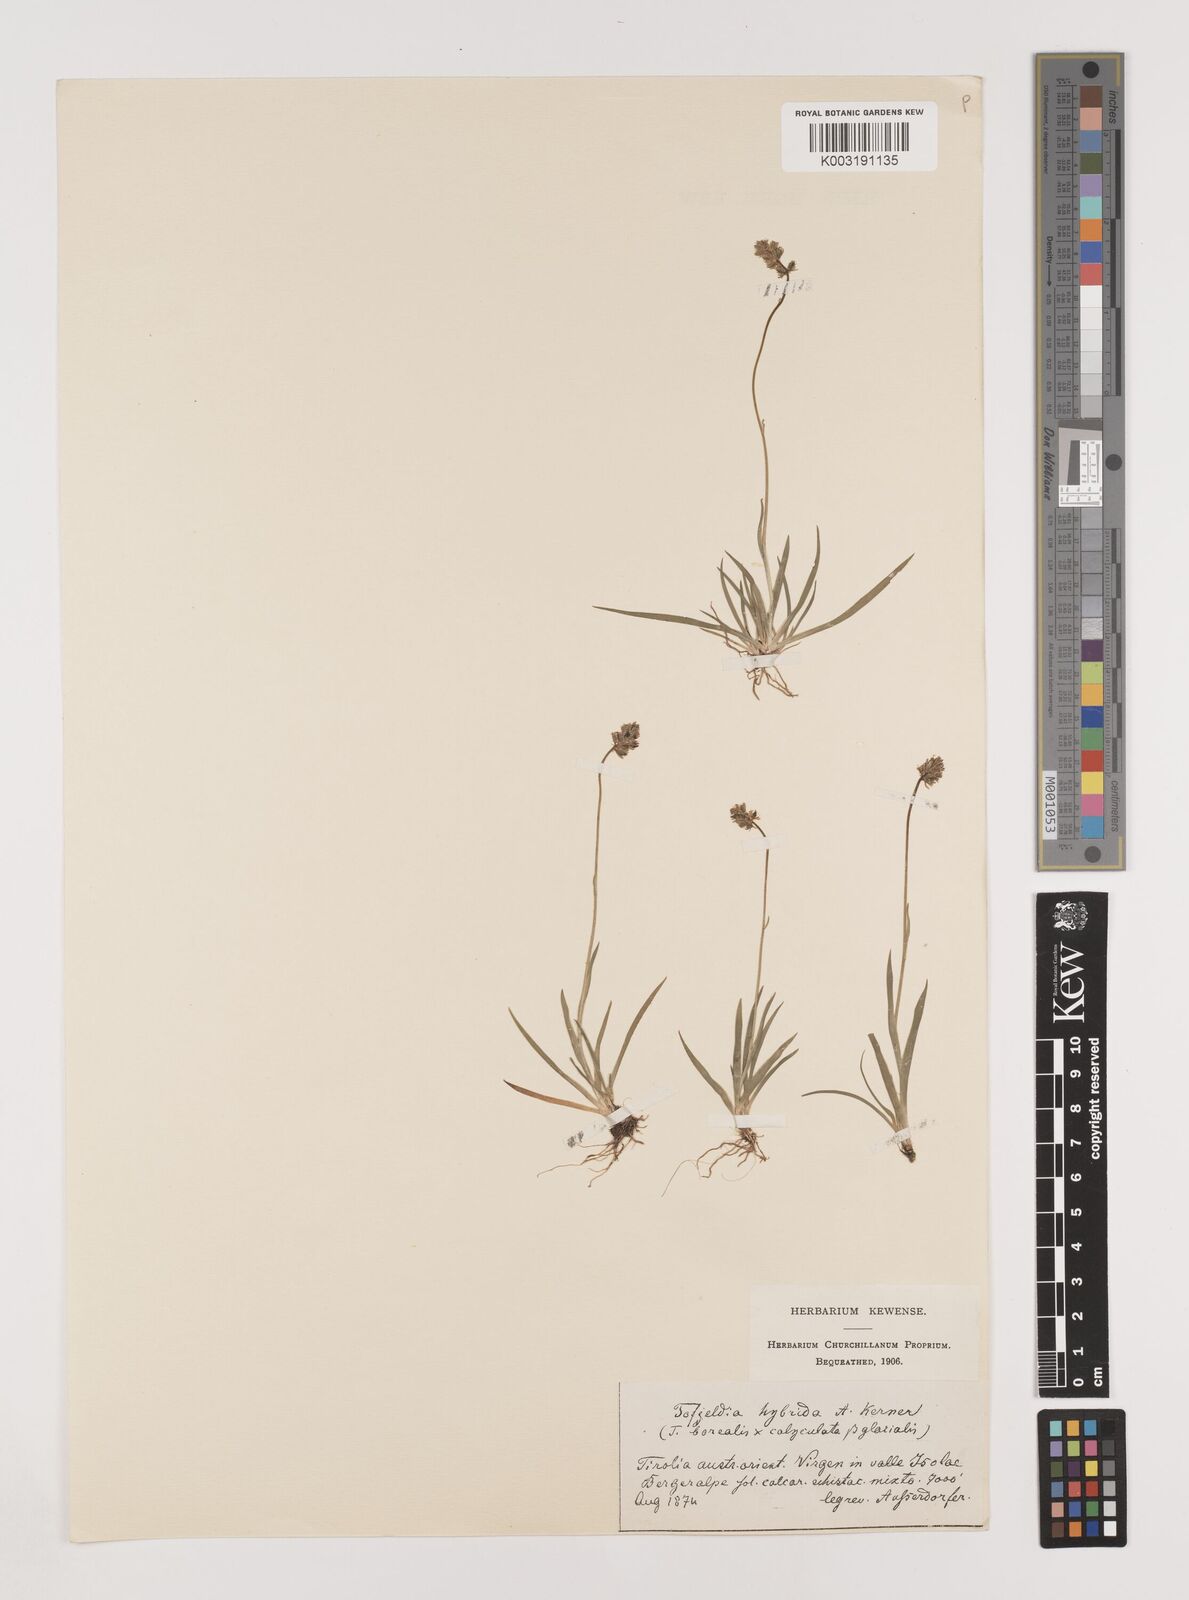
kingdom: Plantae
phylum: Tracheophyta
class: Liliopsida
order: Alismatales
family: Tofieldiaceae
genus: Tofieldia
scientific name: Tofieldia hybrida
